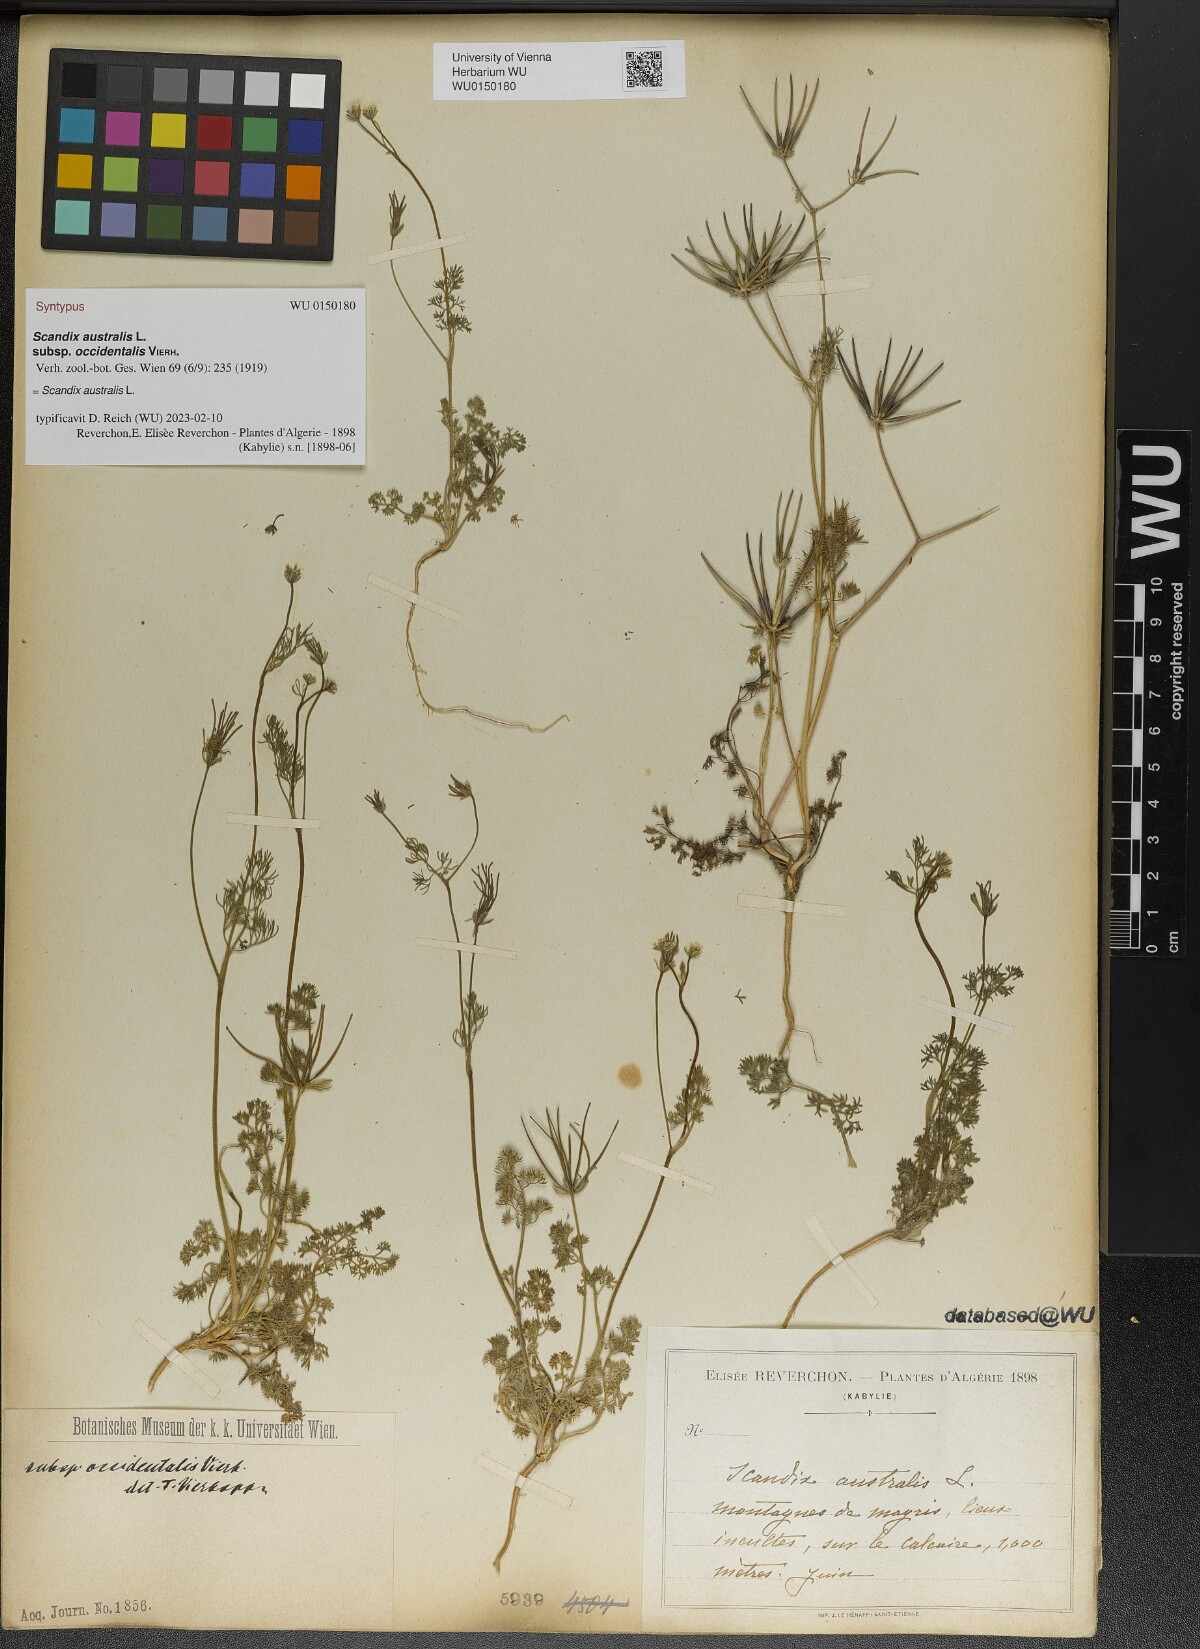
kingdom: Plantae
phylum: Tracheophyta
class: Magnoliopsida
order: Apiales
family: Apiaceae
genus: Scandix
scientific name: Scandix australis
